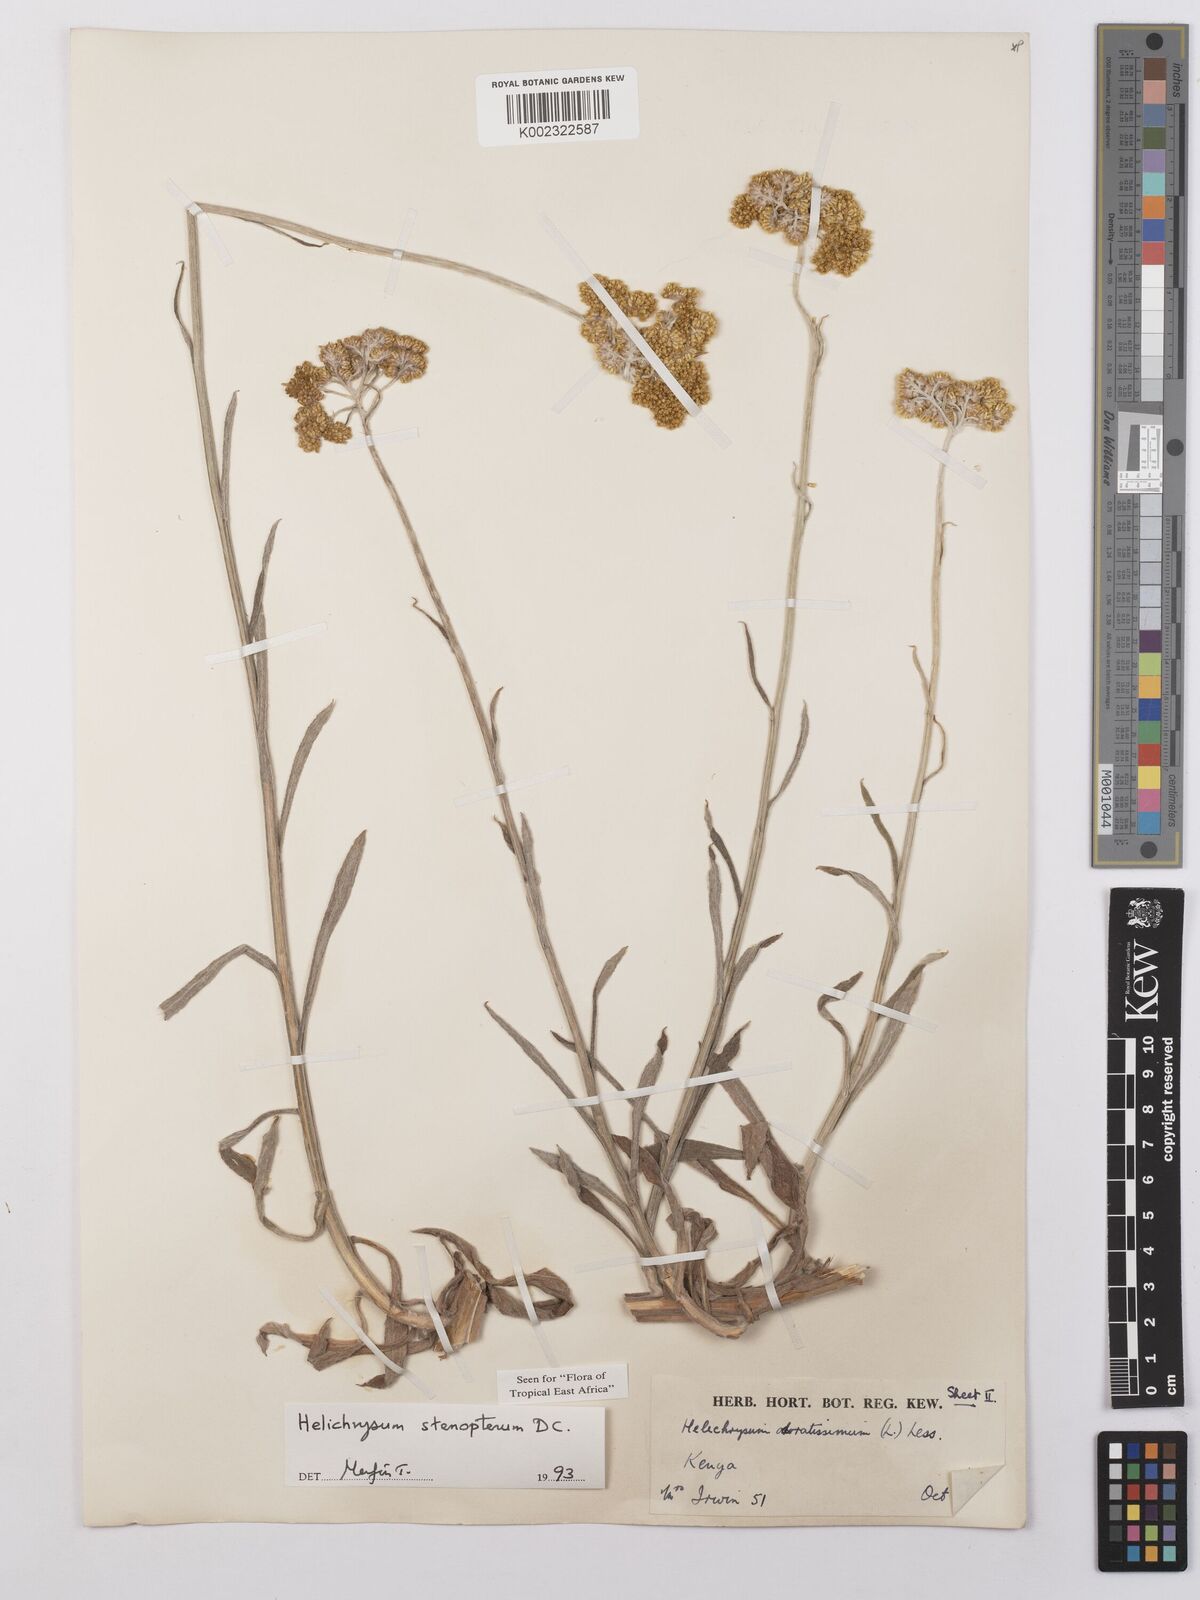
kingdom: Plantae
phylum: Tracheophyta
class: Magnoliopsida
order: Asterales
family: Asteraceae
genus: Helichrysum
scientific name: Helichrysum stenopterum
